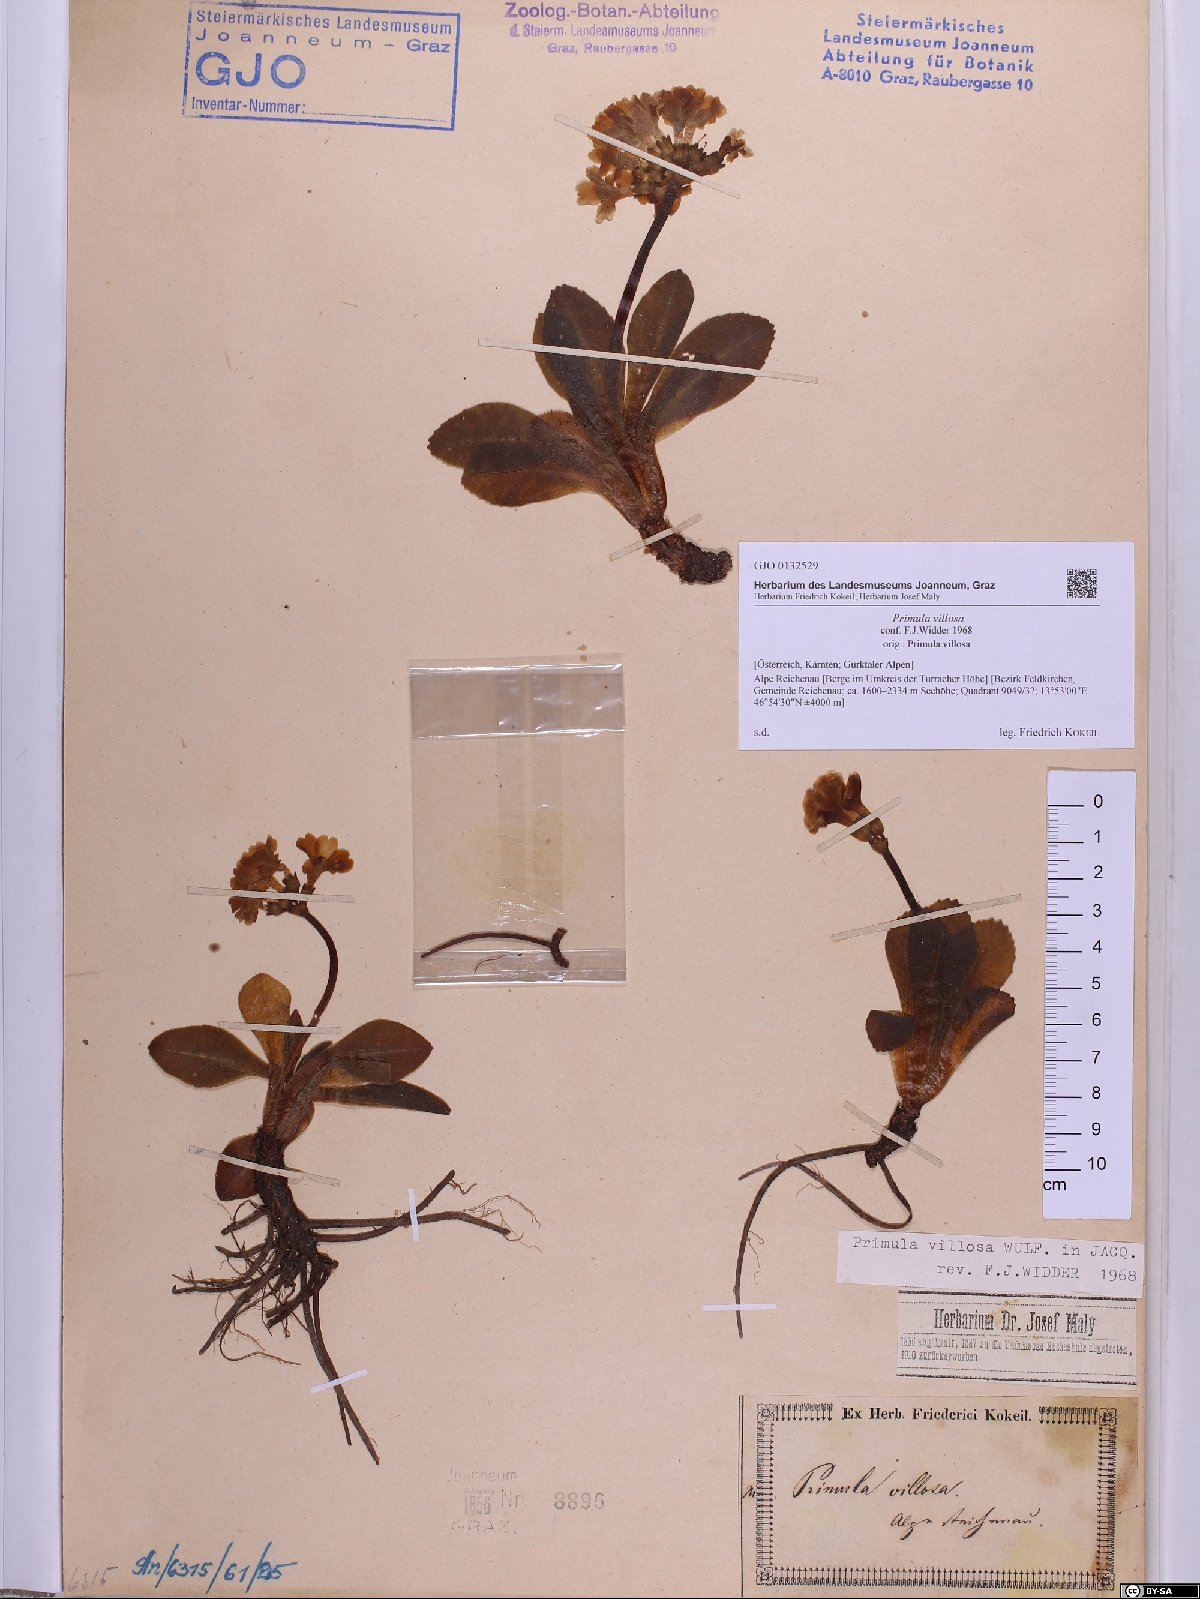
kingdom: Plantae
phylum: Tracheophyta
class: Magnoliopsida
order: Ericales
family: Primulaceae
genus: Primula
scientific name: Primula villosa
